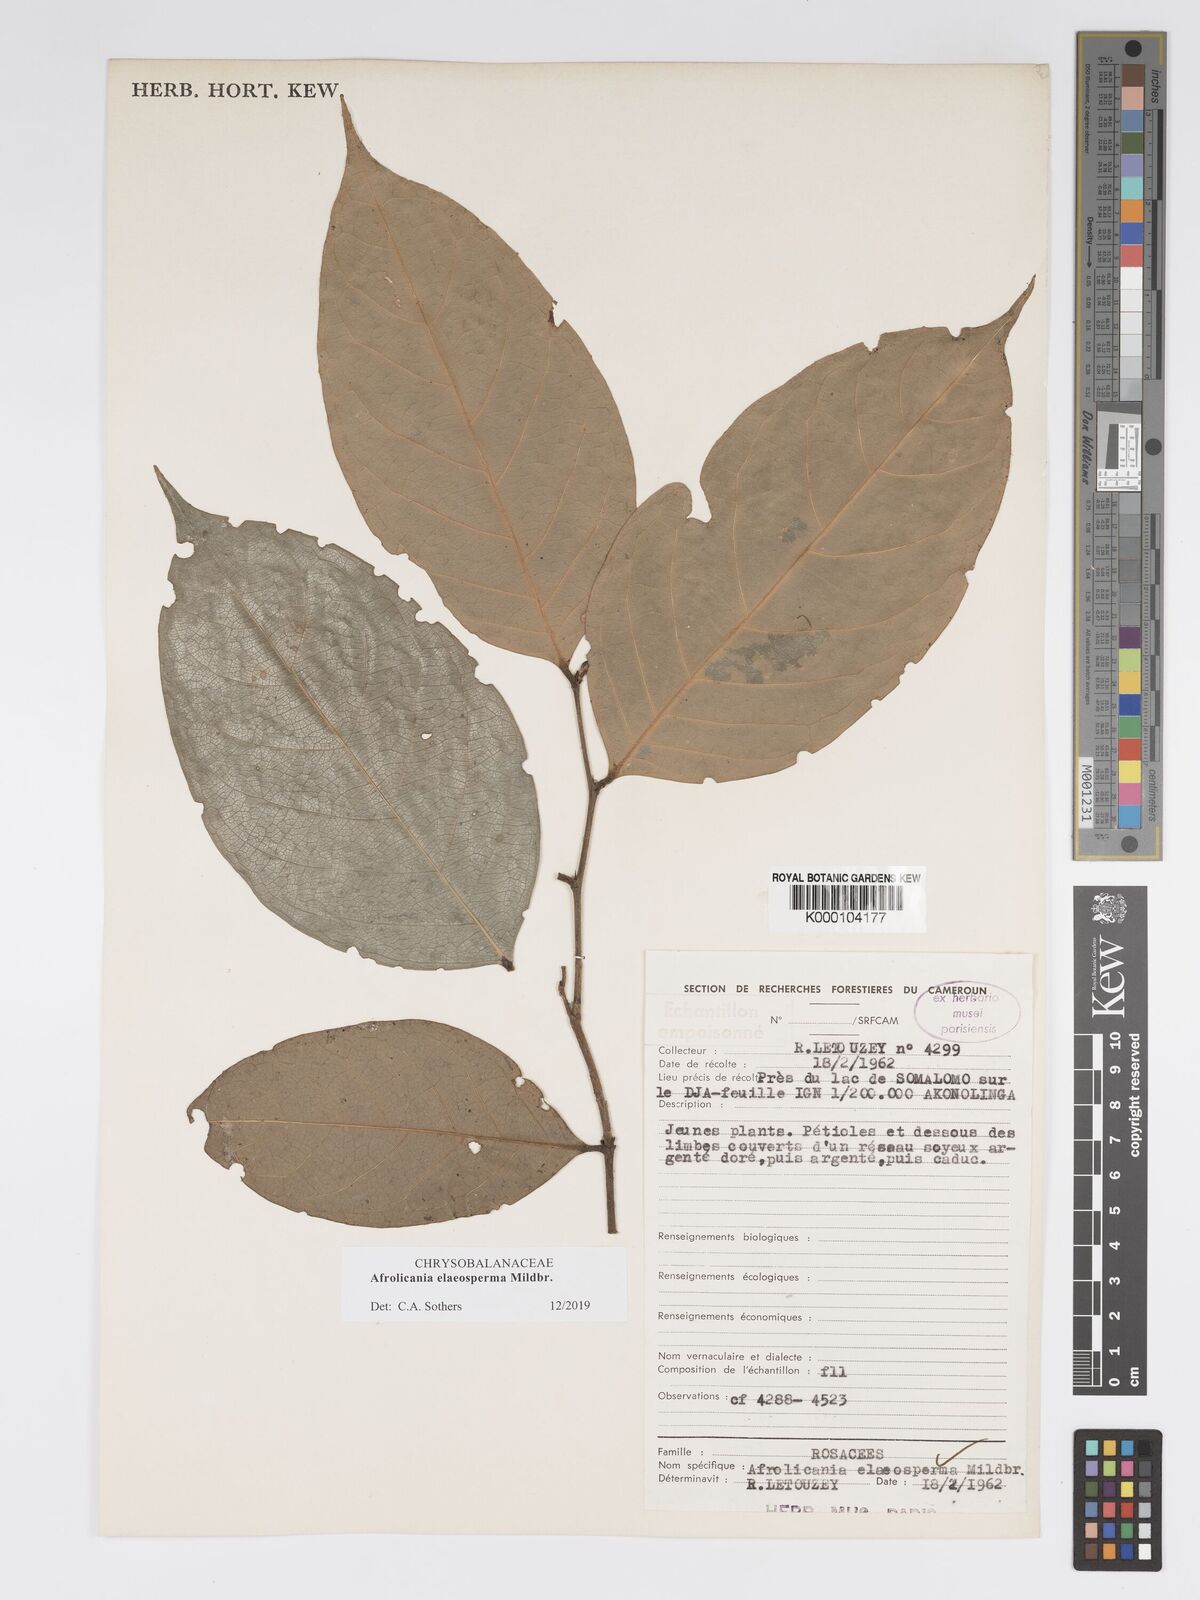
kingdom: Plantae
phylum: Tracheophyta
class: Magnoliopsida
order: Malpighiales
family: Chrysobalanaceae
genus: Afrolicania
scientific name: Afrolicania elaeosperma
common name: Nikko
